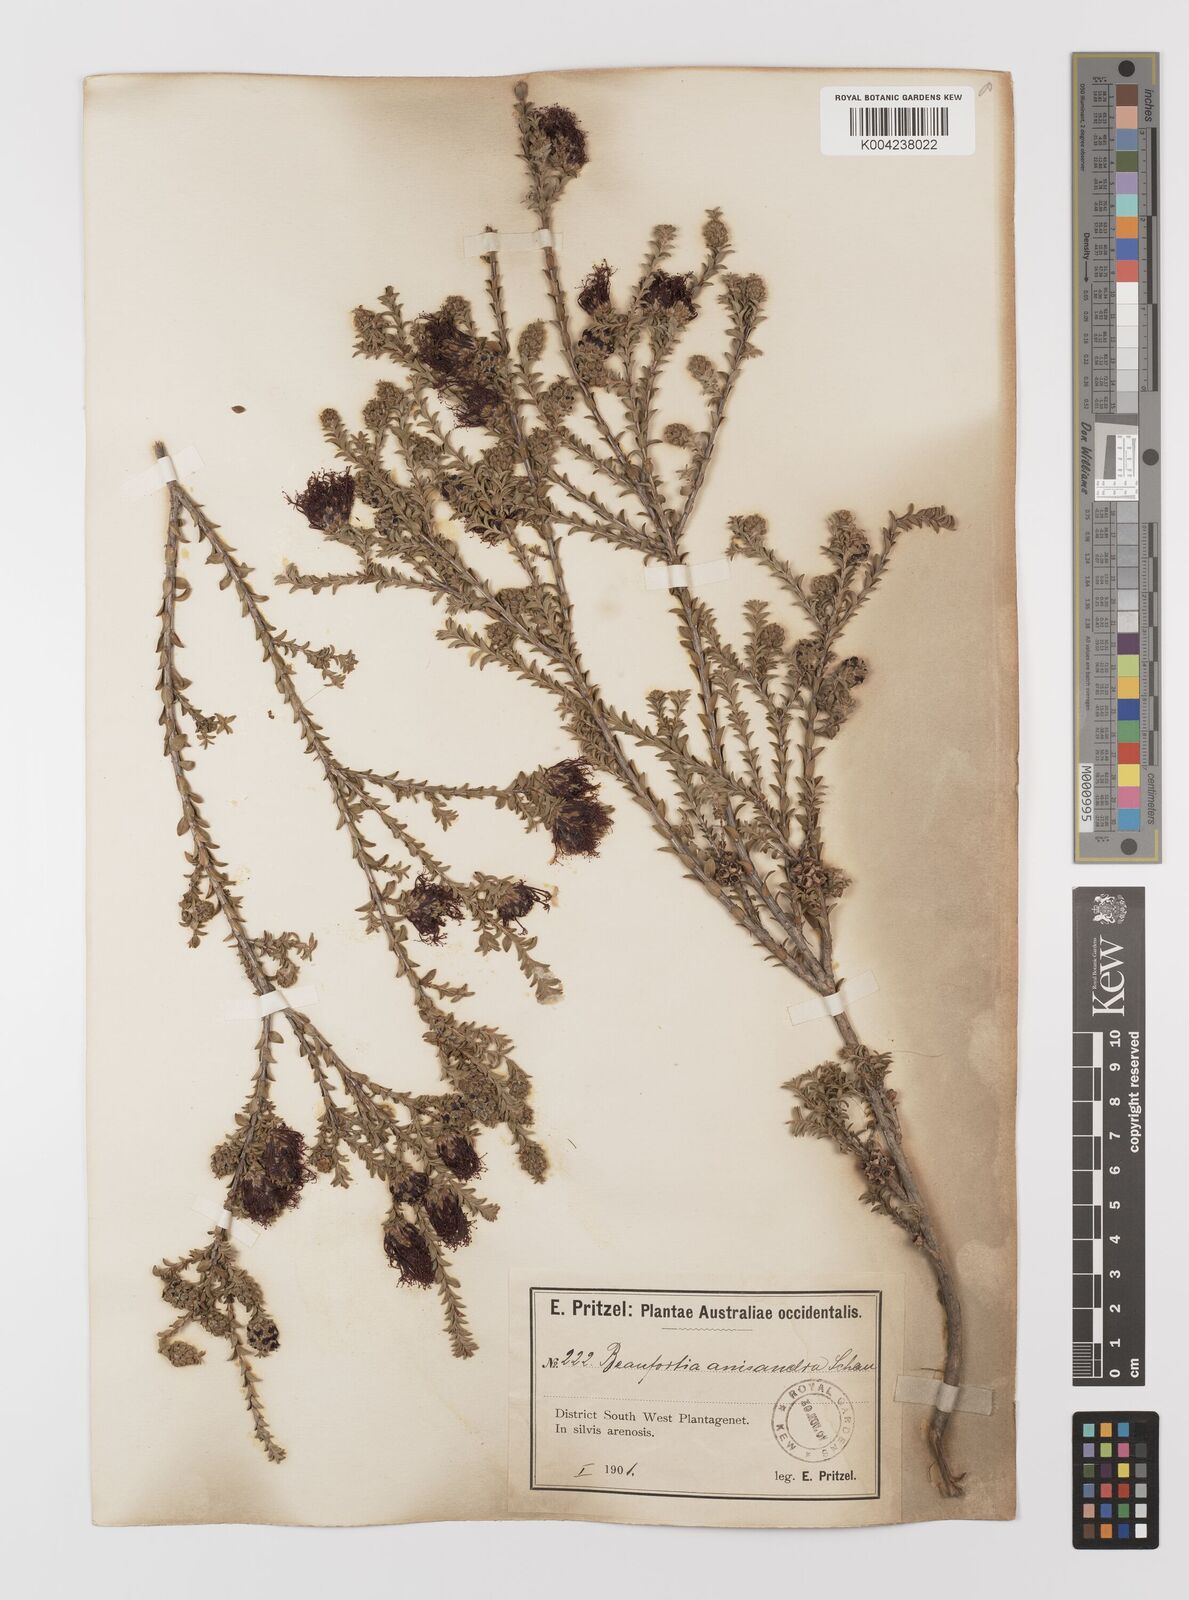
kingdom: Plantae
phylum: Tracheophyta
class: Magnoliopsida
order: Myrtales
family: Myrtaceae
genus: Melaleuca
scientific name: Melaleuca anisandra
